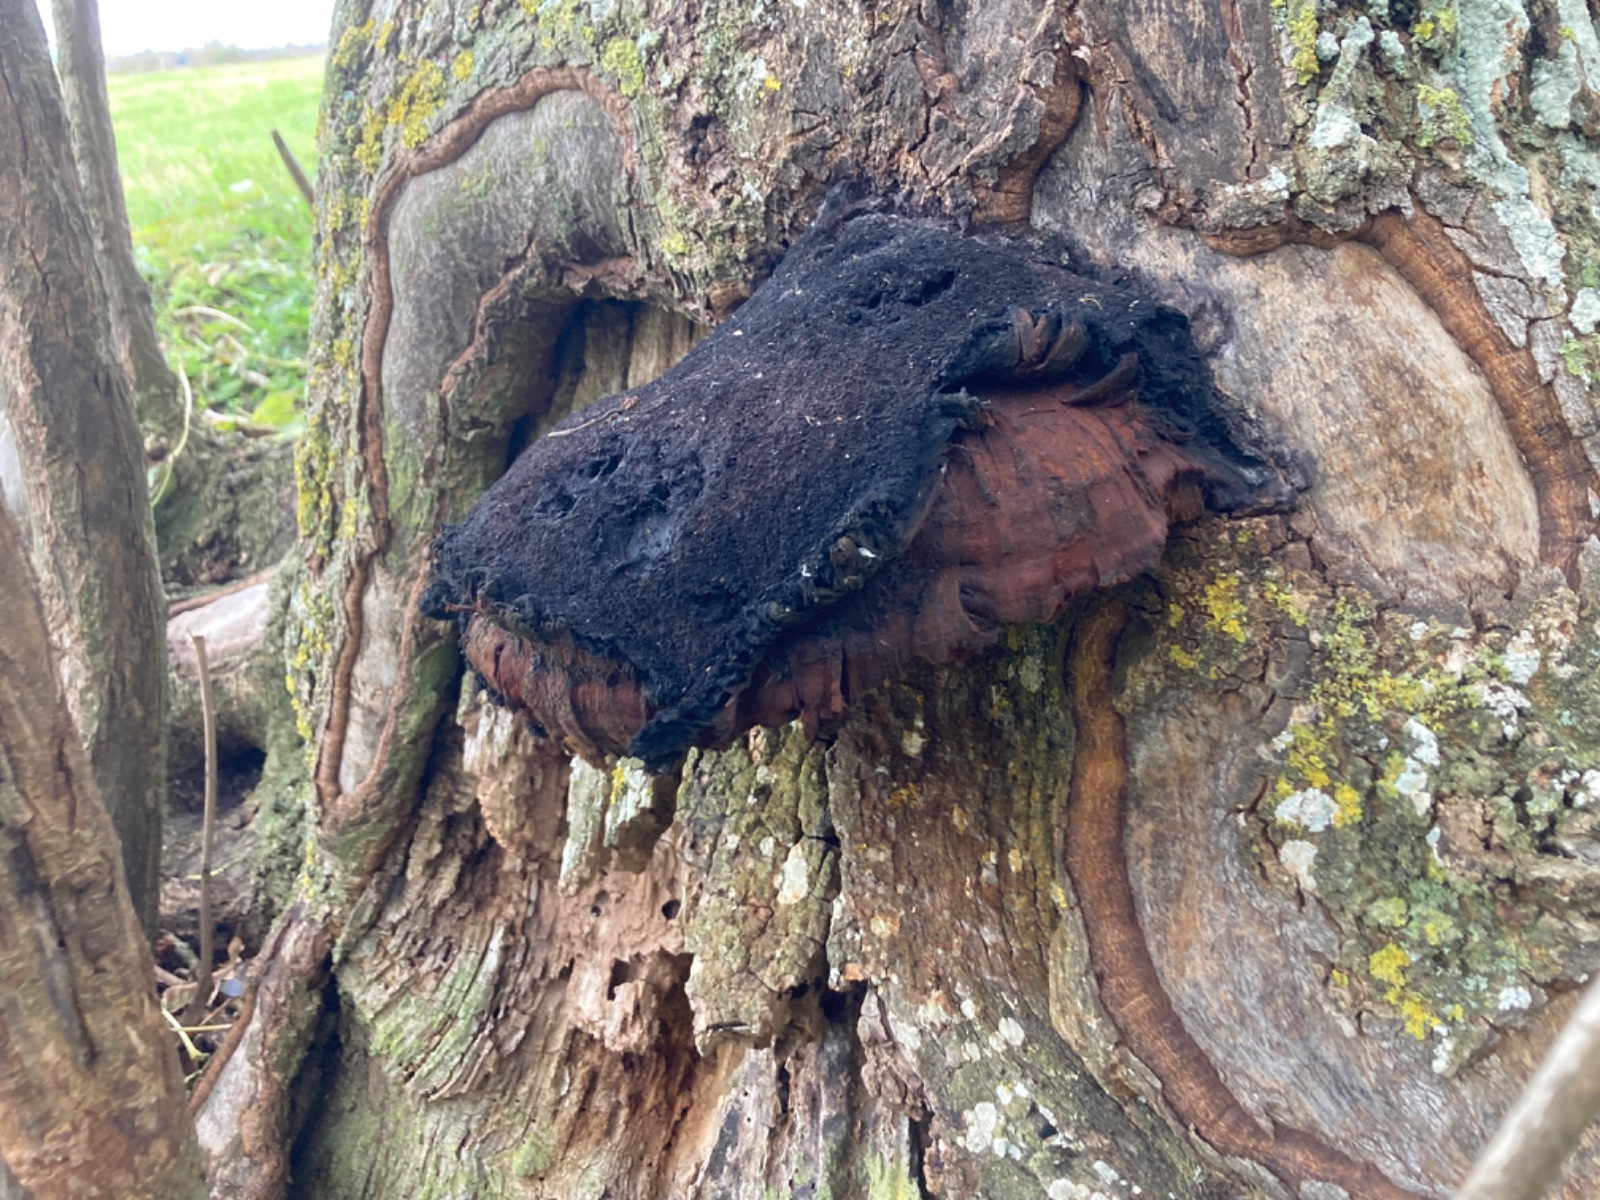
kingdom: Fungi
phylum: Basidiomycota
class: Agaricomycetes
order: Hymenochaetales
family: Hymenochaetaceae
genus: Inonotus
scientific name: Inonotus hispidus
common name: børstehåret spejlporesvamp
